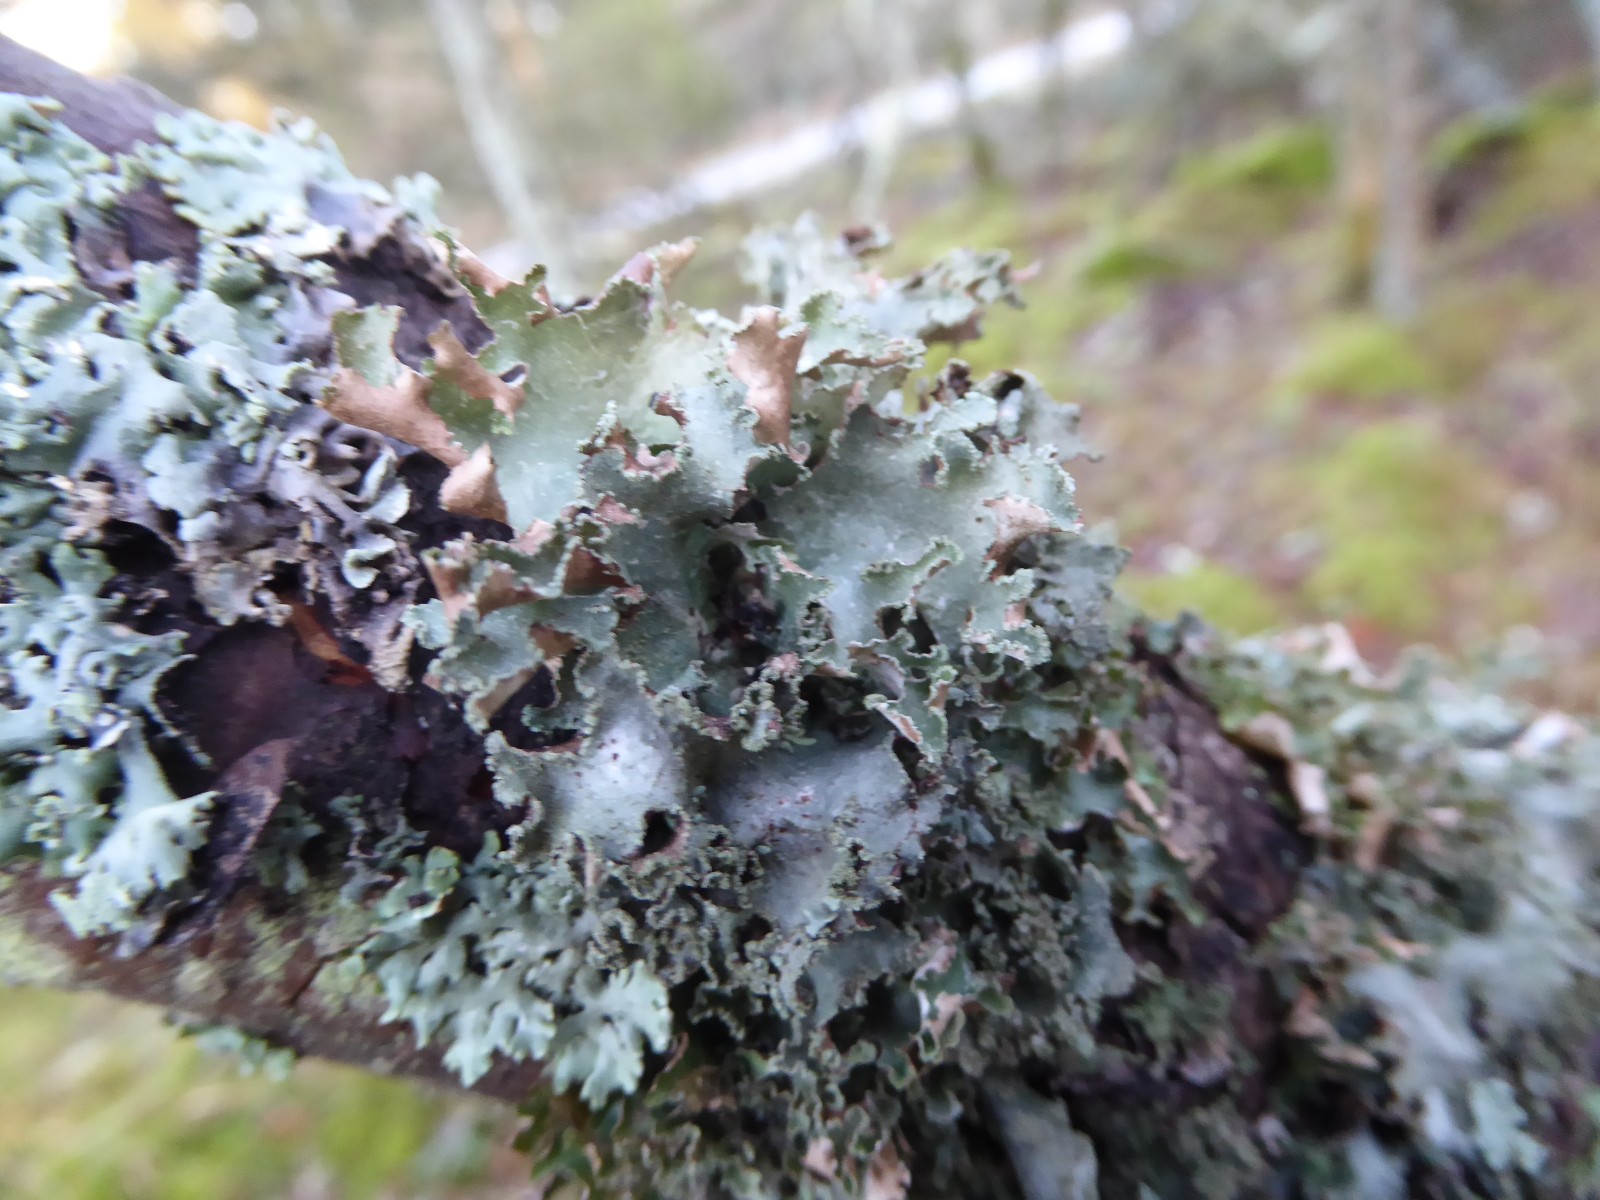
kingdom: Fungi
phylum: Ascomycota
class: Lecanoromycetes
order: Lecanorales
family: Parmeliaceae
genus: Platismatia
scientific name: Platismatia glauca
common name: blågrå papirlav
